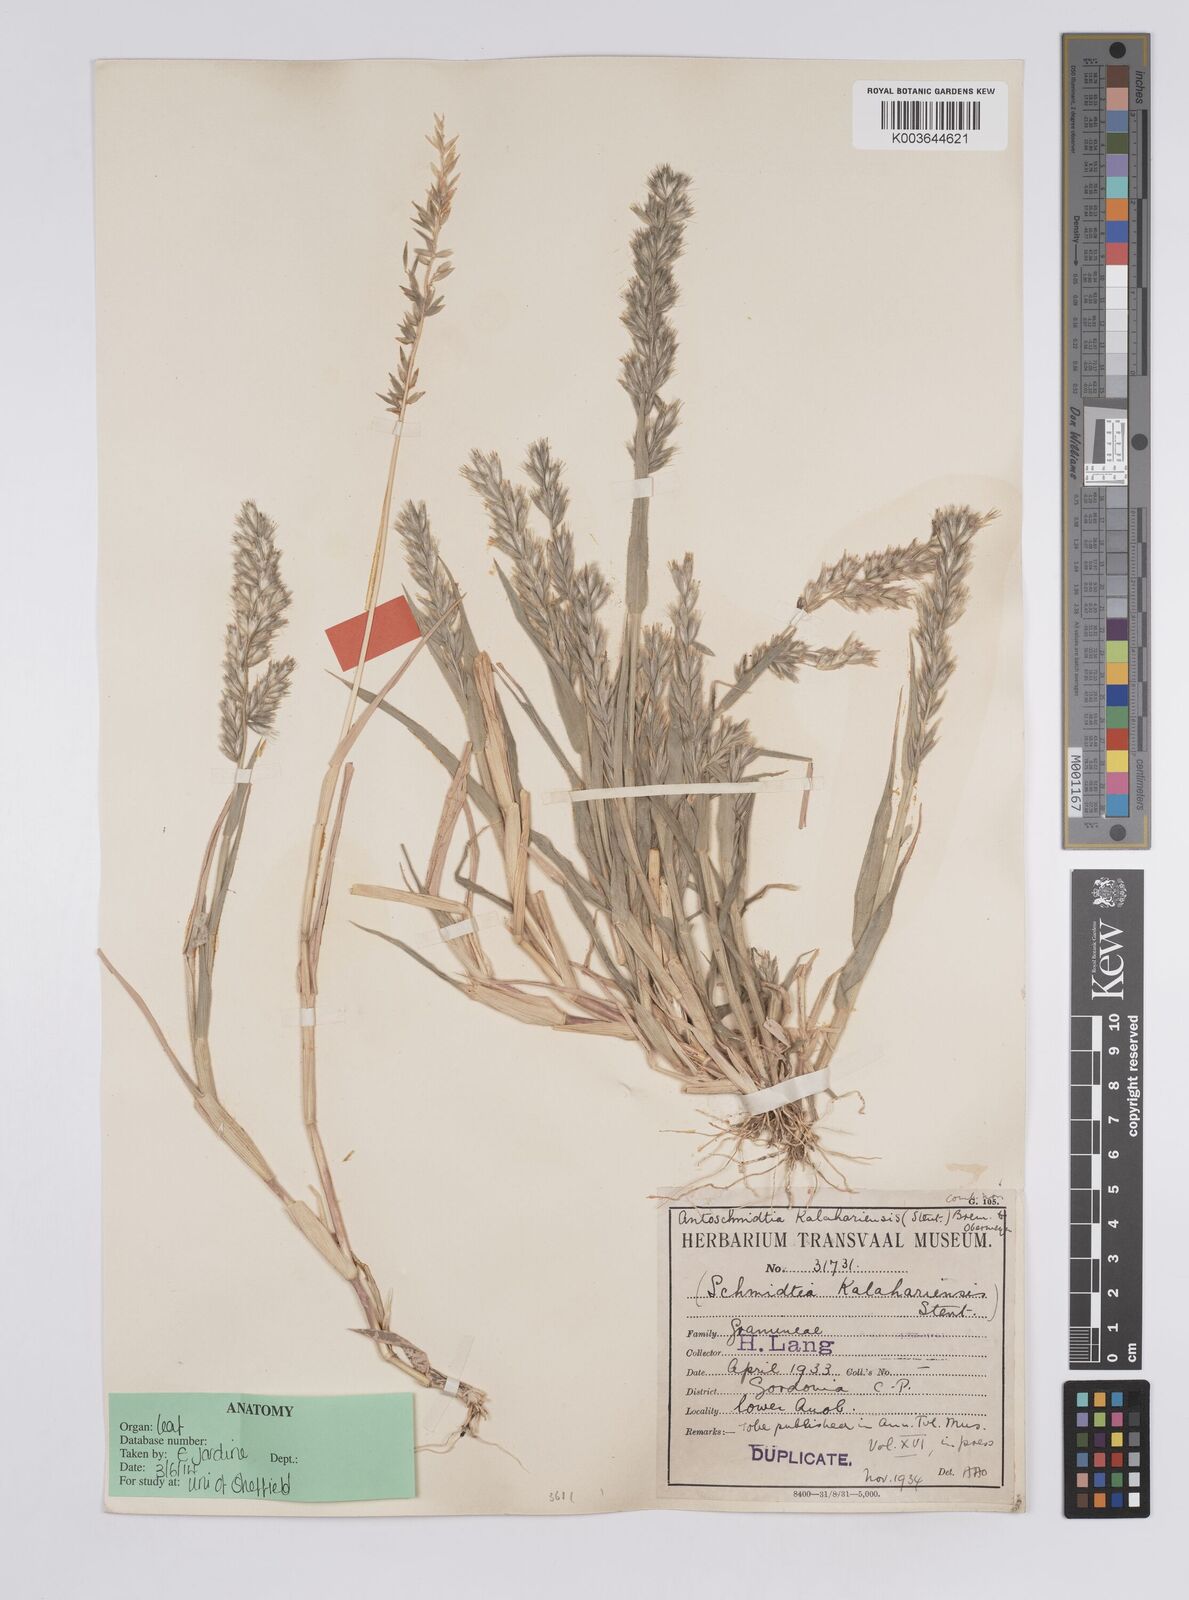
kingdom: Plantae
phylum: Tracheophyta
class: Liliopsida
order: Poales
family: Poaceae
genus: Schmidtia
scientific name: Schmidtia kalahariensis
